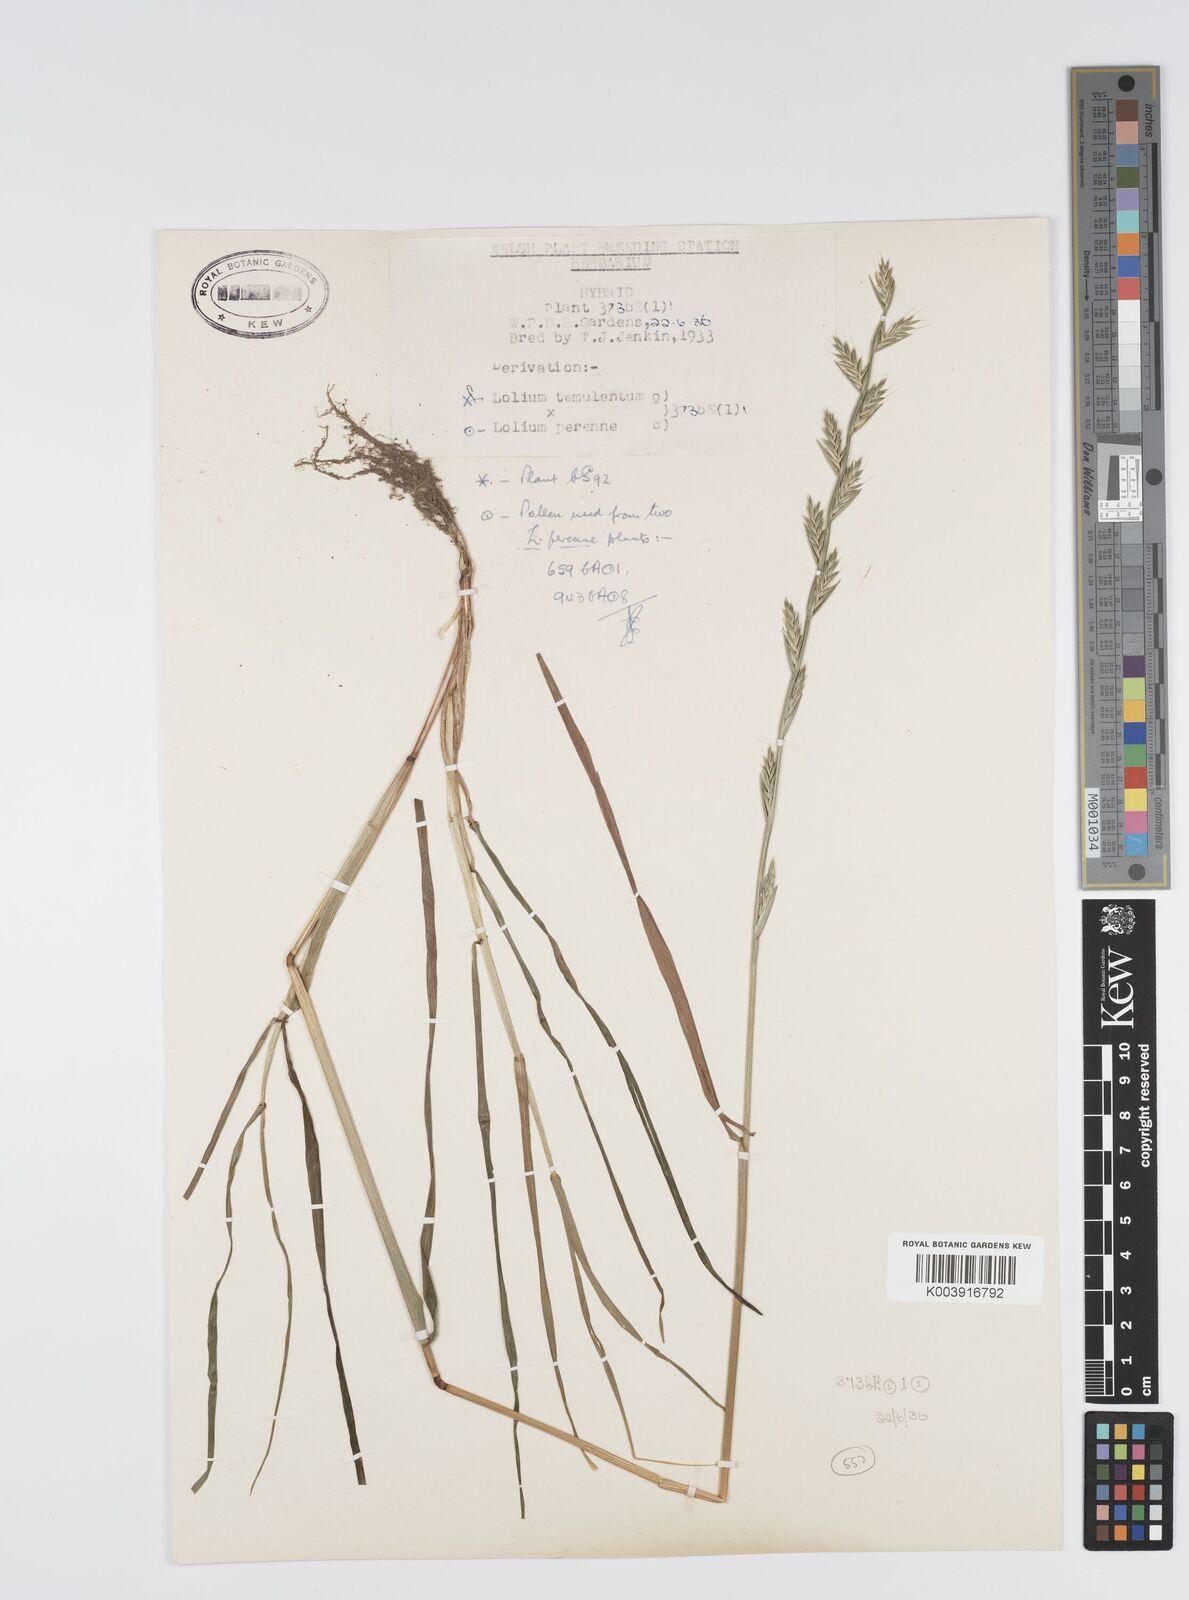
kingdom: Plantae
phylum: Tracheophyta
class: Liliopsida
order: Poales
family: Poaceae
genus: Lolium
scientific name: Lolium perenne
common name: Perennial ryegrass
